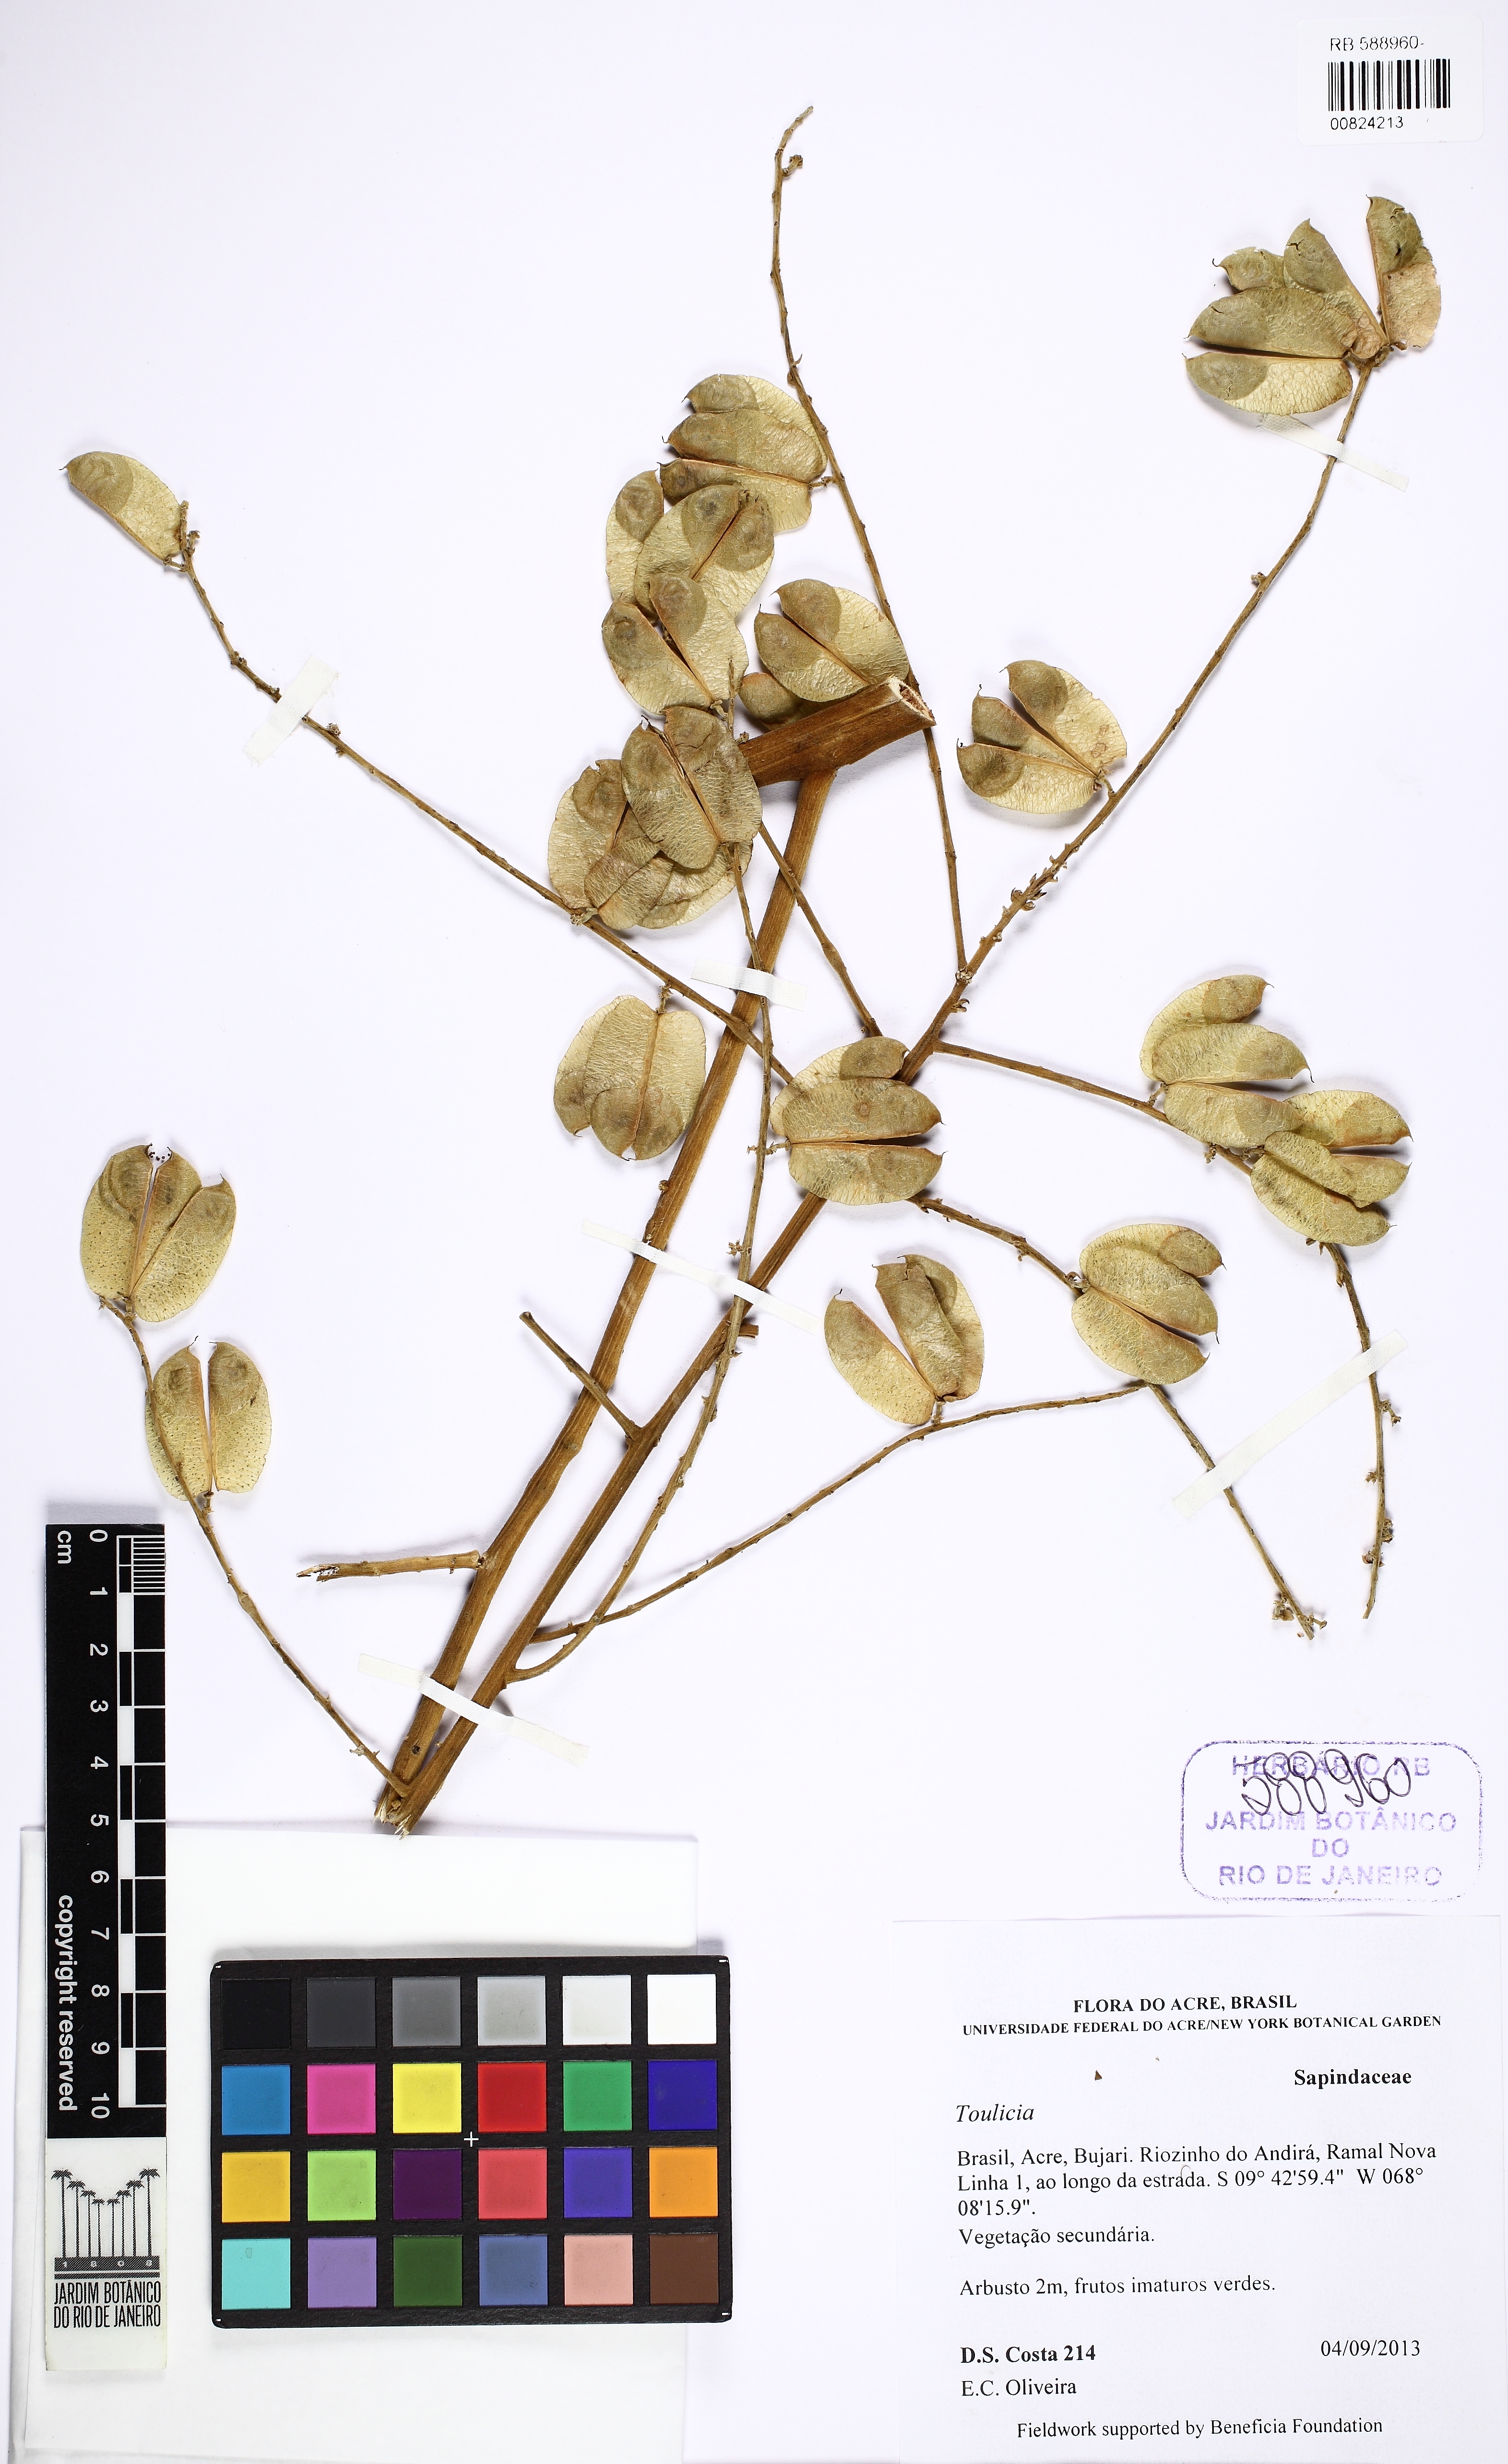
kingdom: Plantae
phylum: Tracheophyta
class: Magnoliopsida
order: Sapindales
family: Sapindaceae
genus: Toulicia
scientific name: Toulicia radlkoferi
